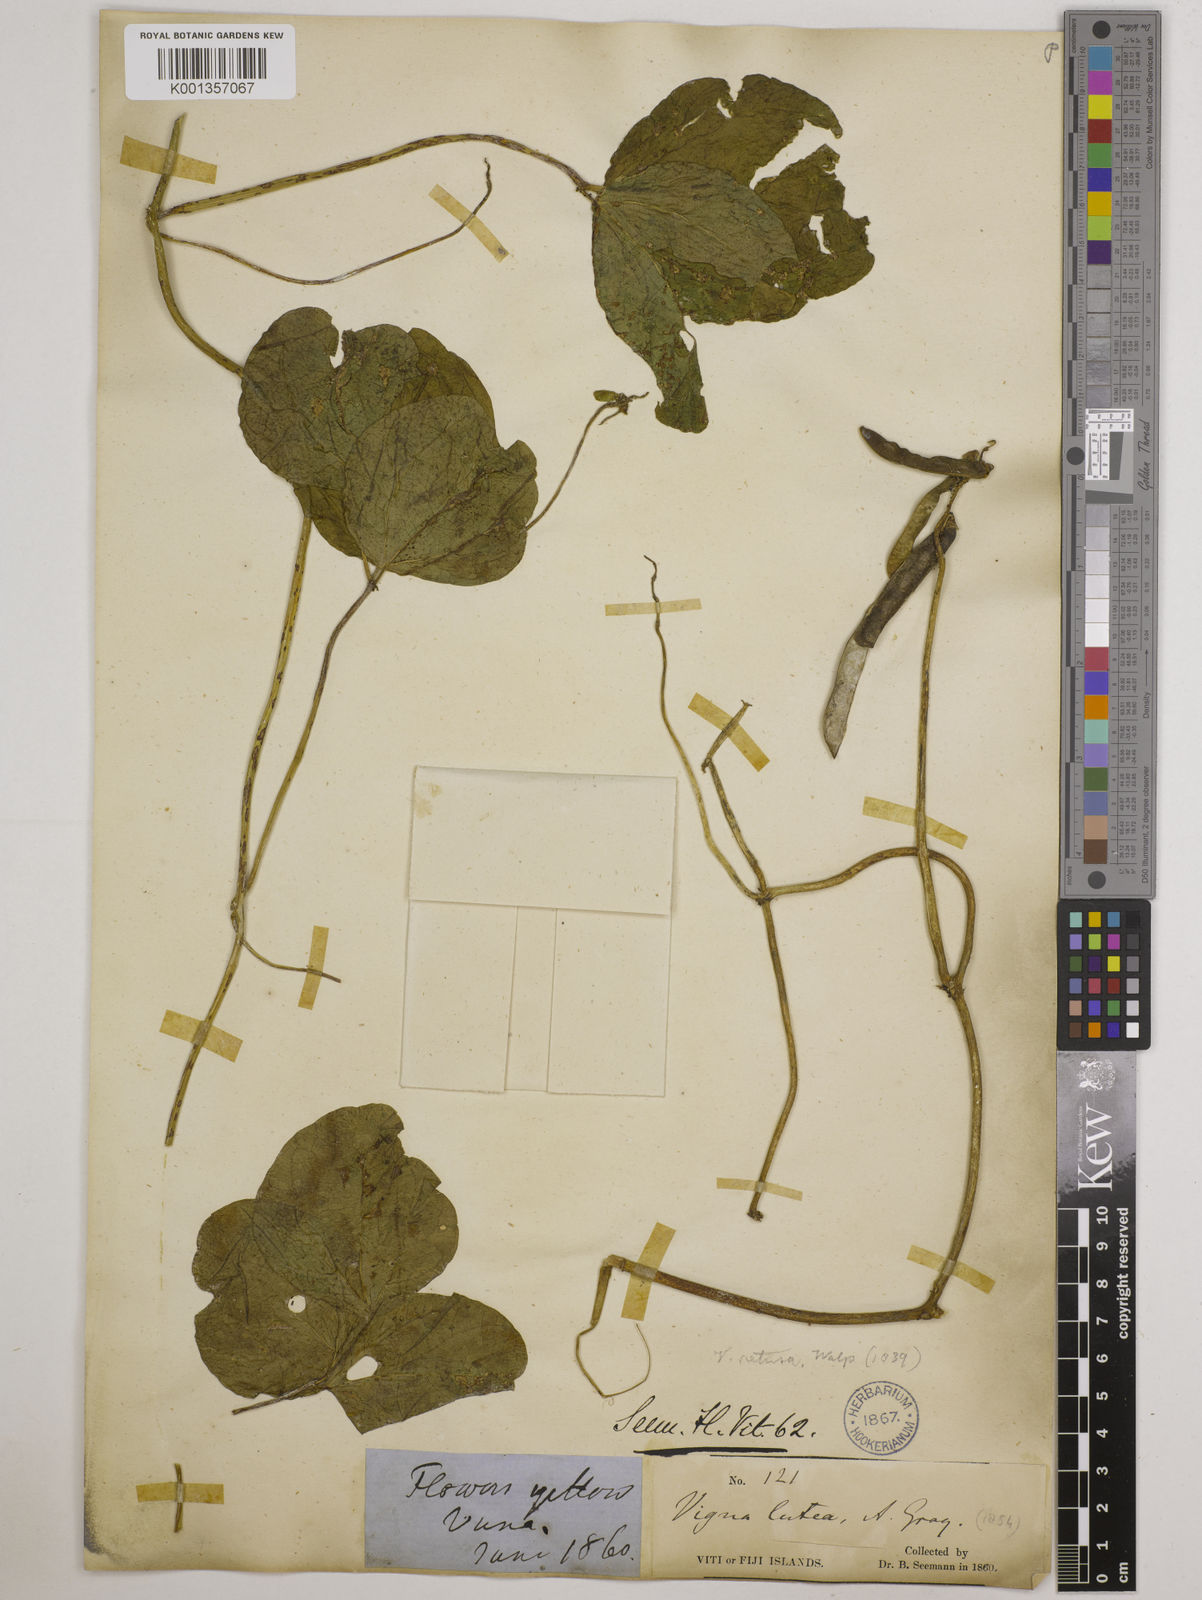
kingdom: Plantae
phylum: Tracheophyta
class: Magnoliopsida
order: Fabales
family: Fabaceae
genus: Vigna
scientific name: Vigna marina
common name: Dune-bean
